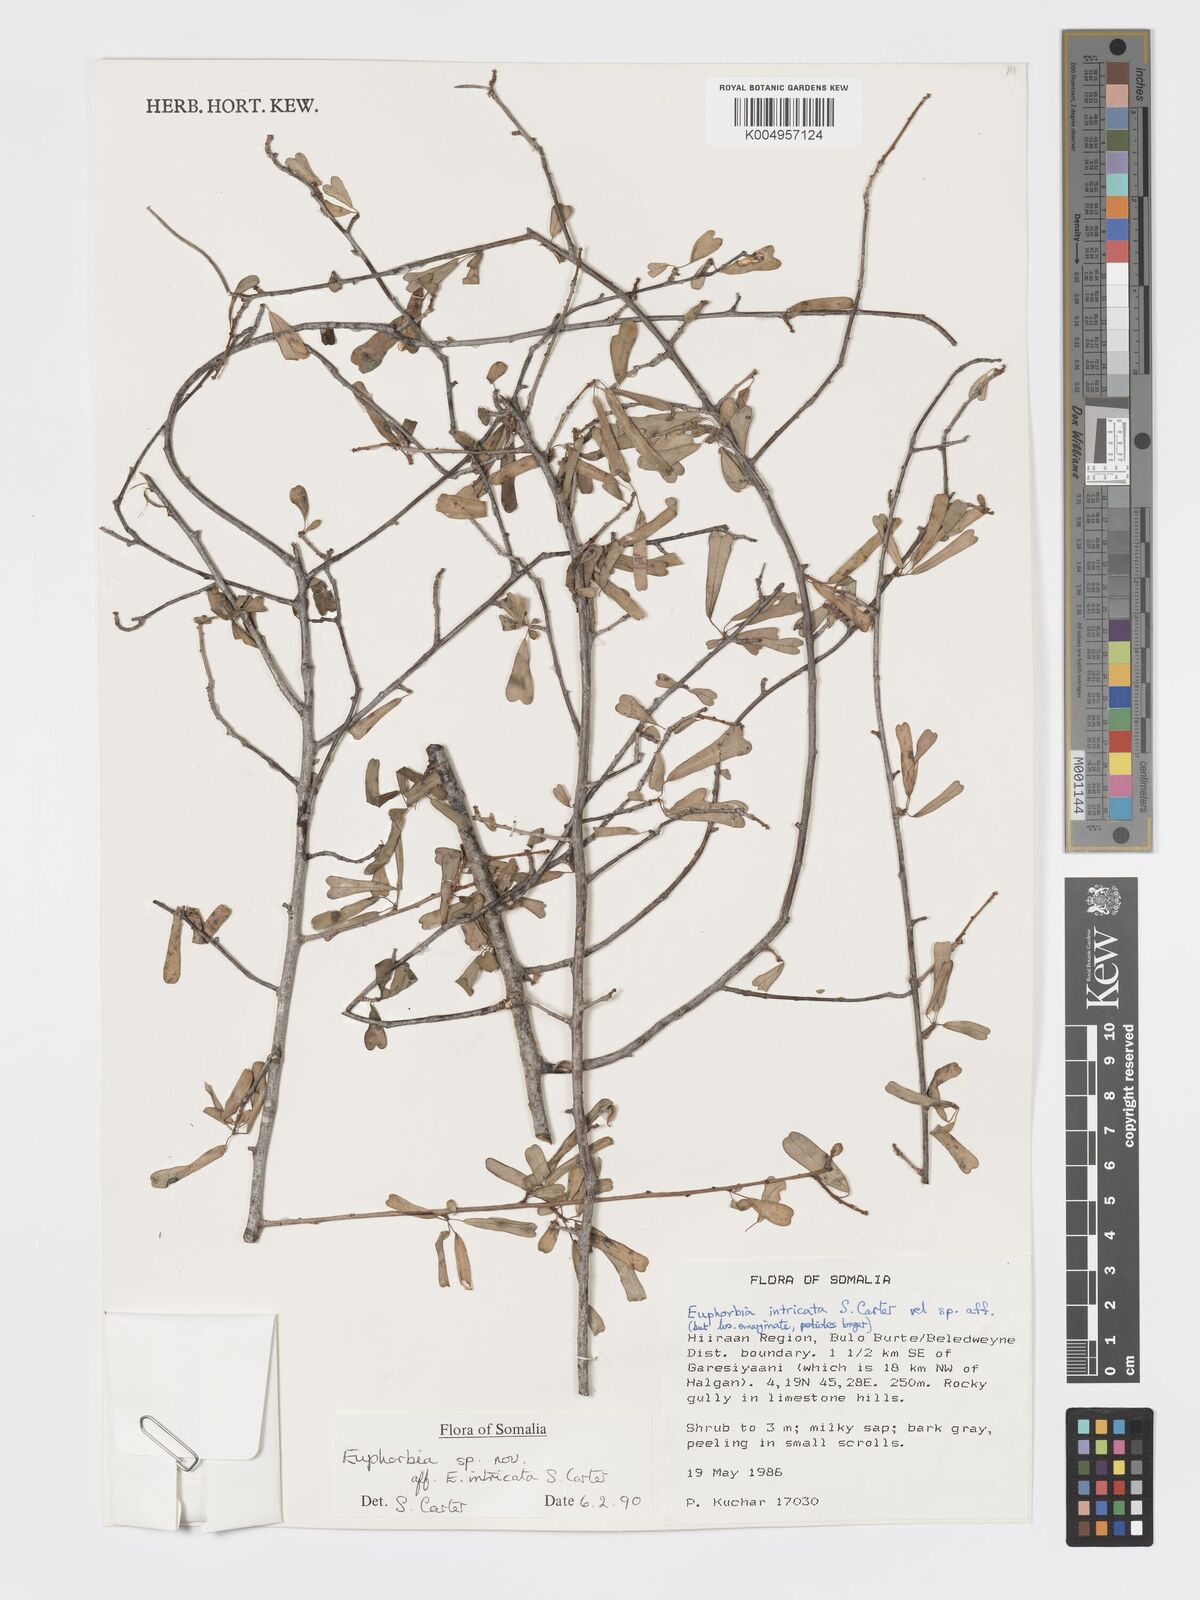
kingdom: Plantae
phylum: Tracheophyta
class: Magnoliopsida
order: Malpighiales
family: Euphorbiaceae
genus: Euphorbia
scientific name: Euphorbia intricata
